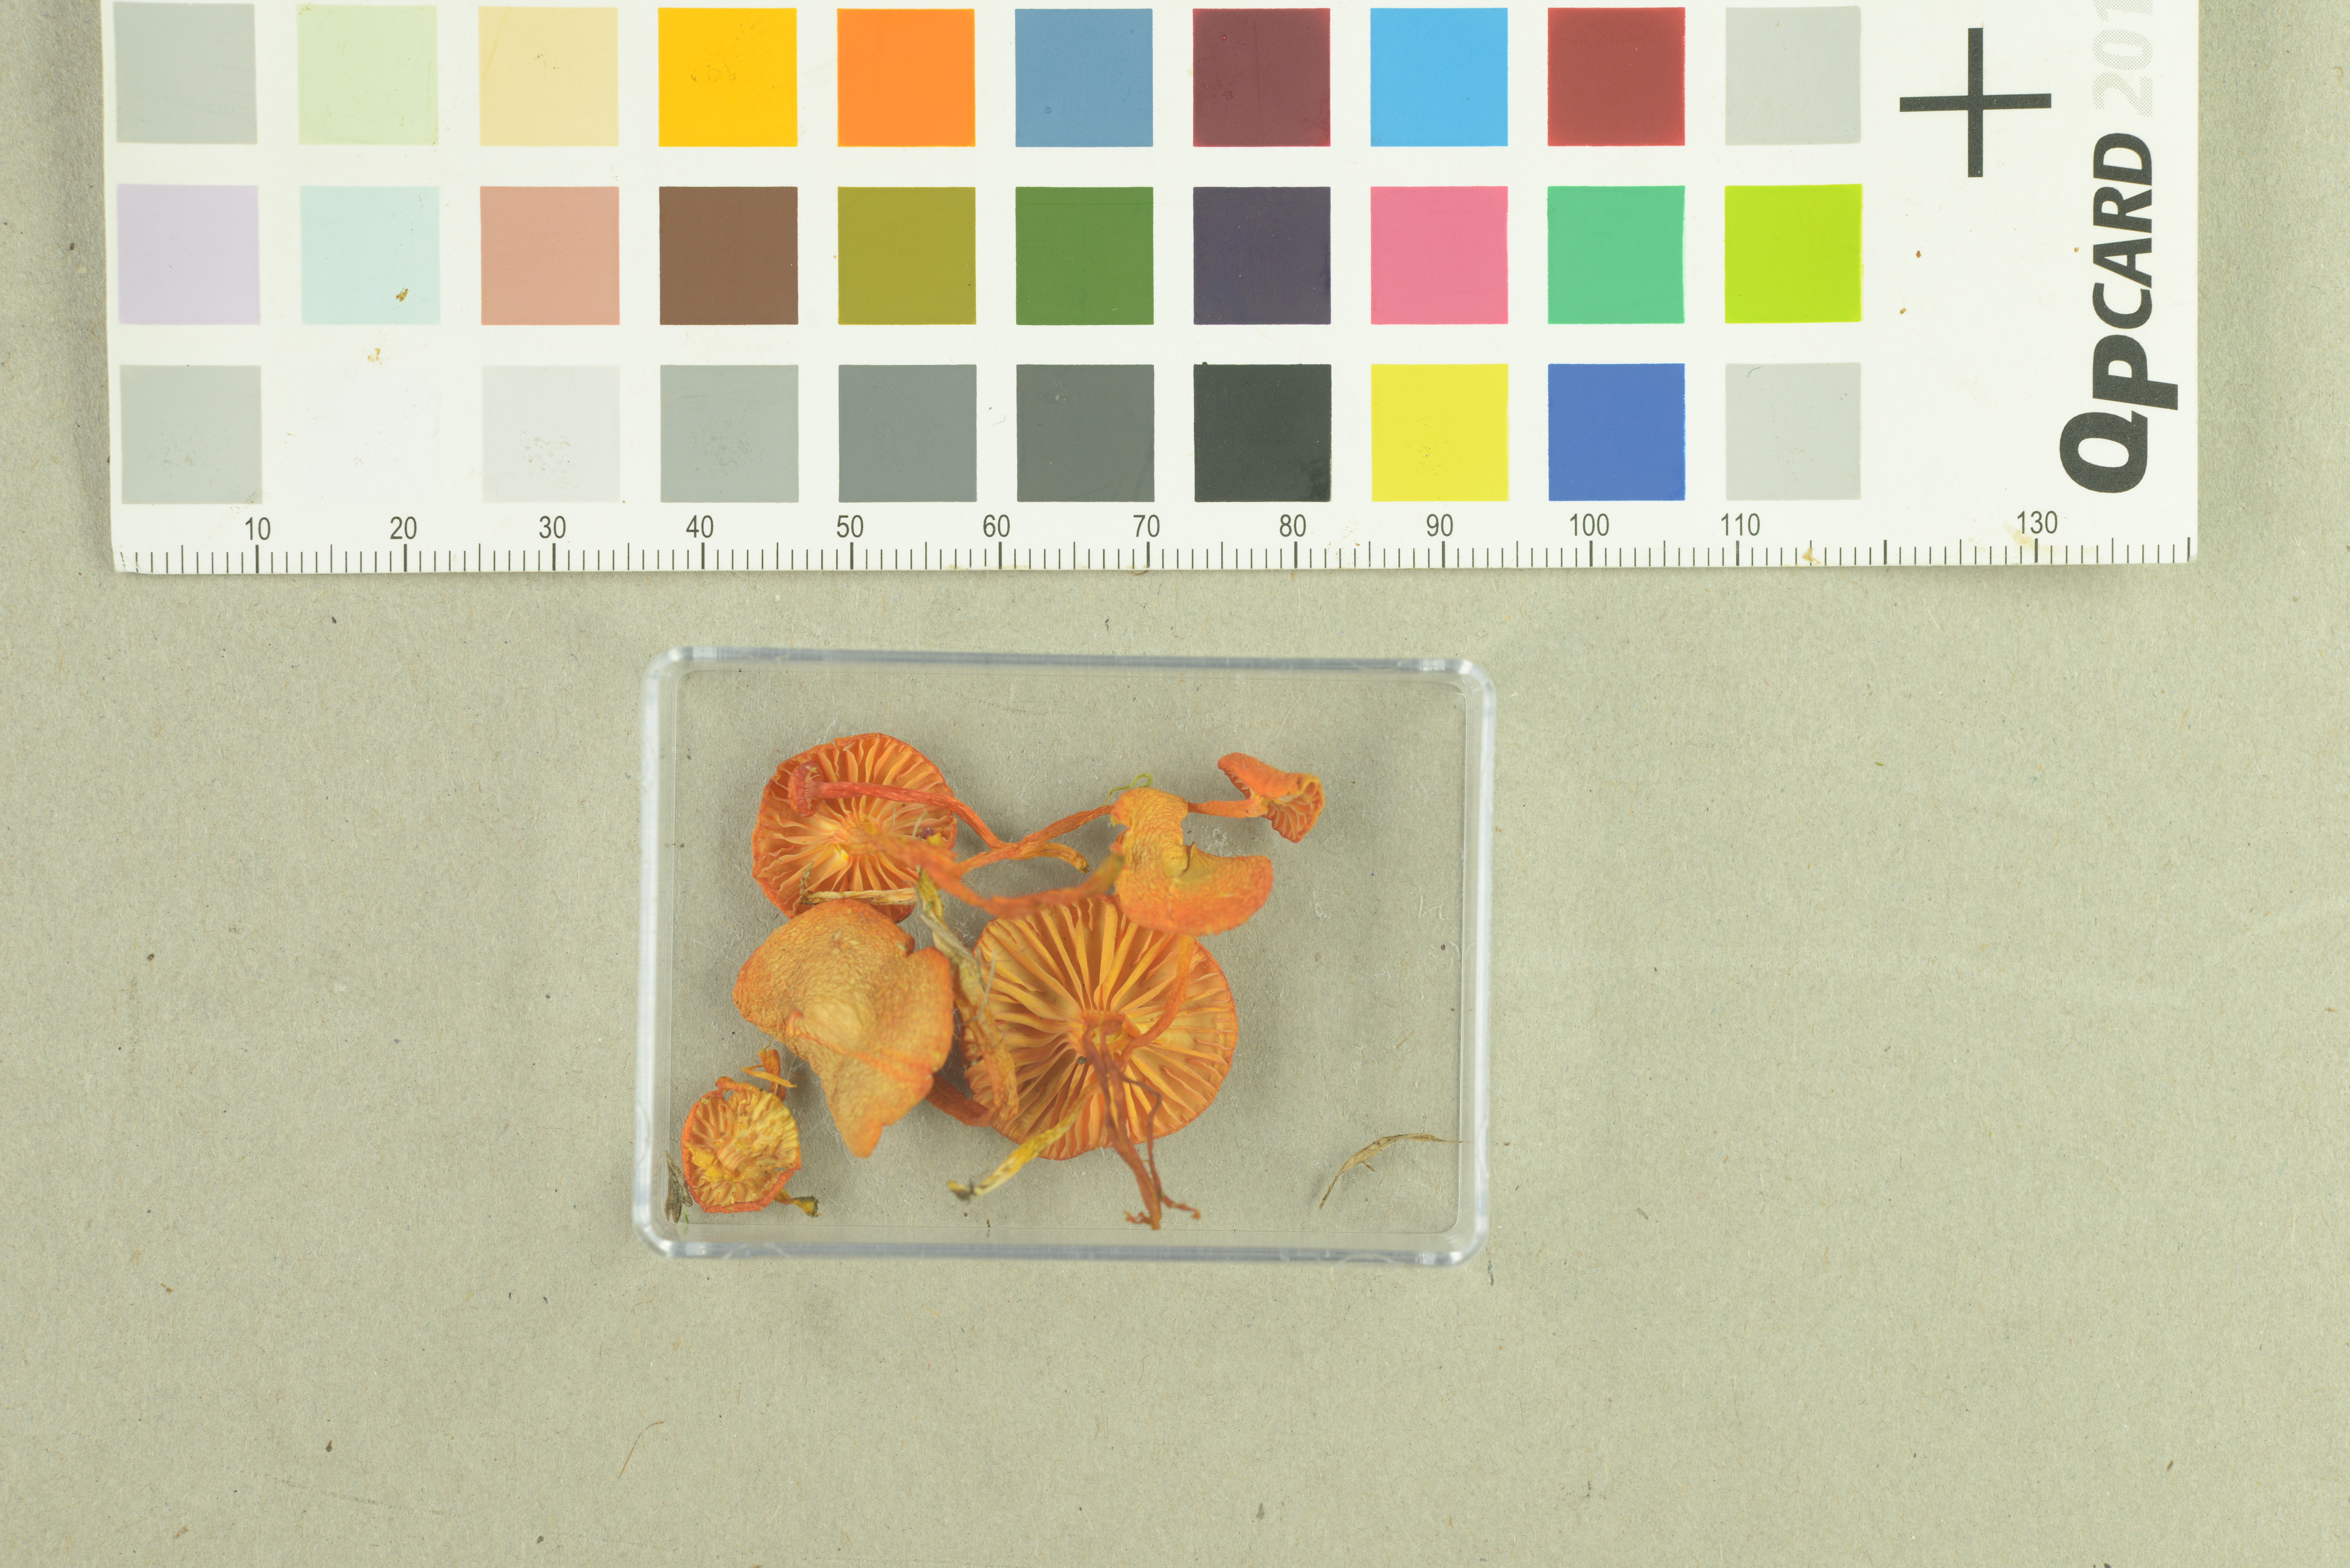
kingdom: Fungi
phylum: Basidiomycota
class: Agaricomycetes
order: Agaricales
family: Hygrophoraceae
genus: Hygrocybe
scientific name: Hygrocybe substrangulata
